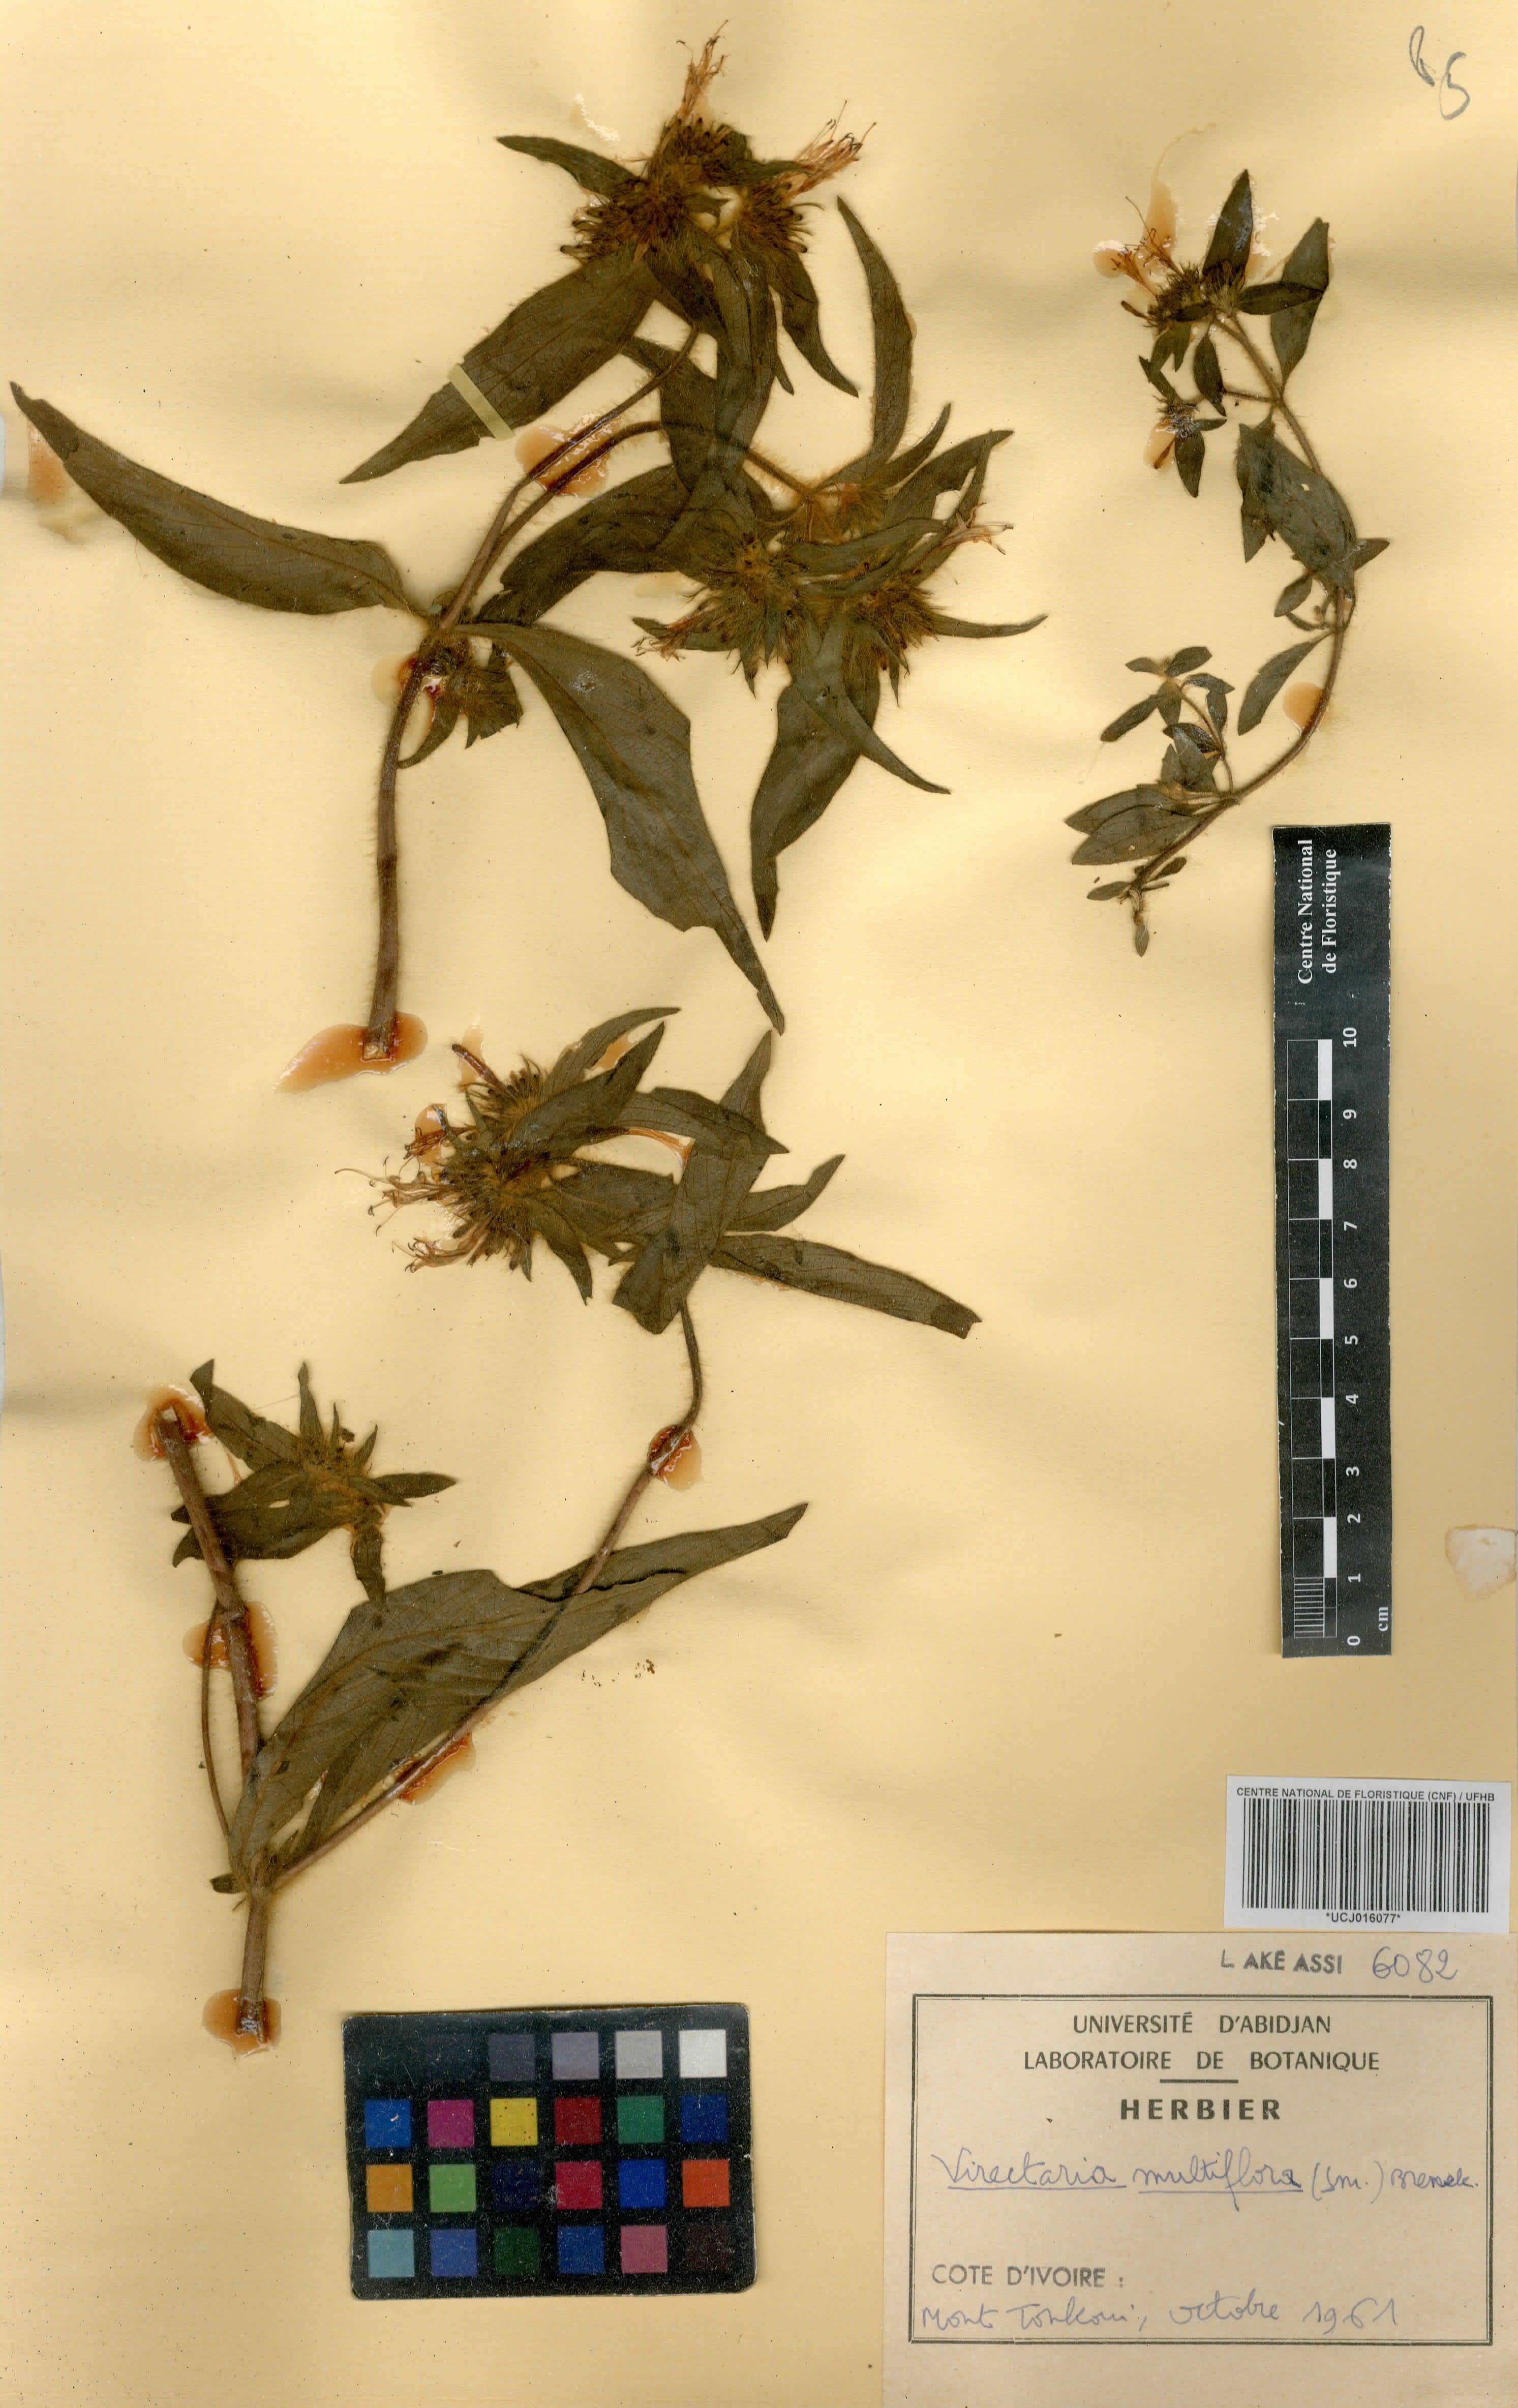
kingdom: Plantae
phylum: Tracheophyta
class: Magnoliopsida
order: Gentianales
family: Rubiaceae
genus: Virectaria
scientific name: Virectaria multiflora
